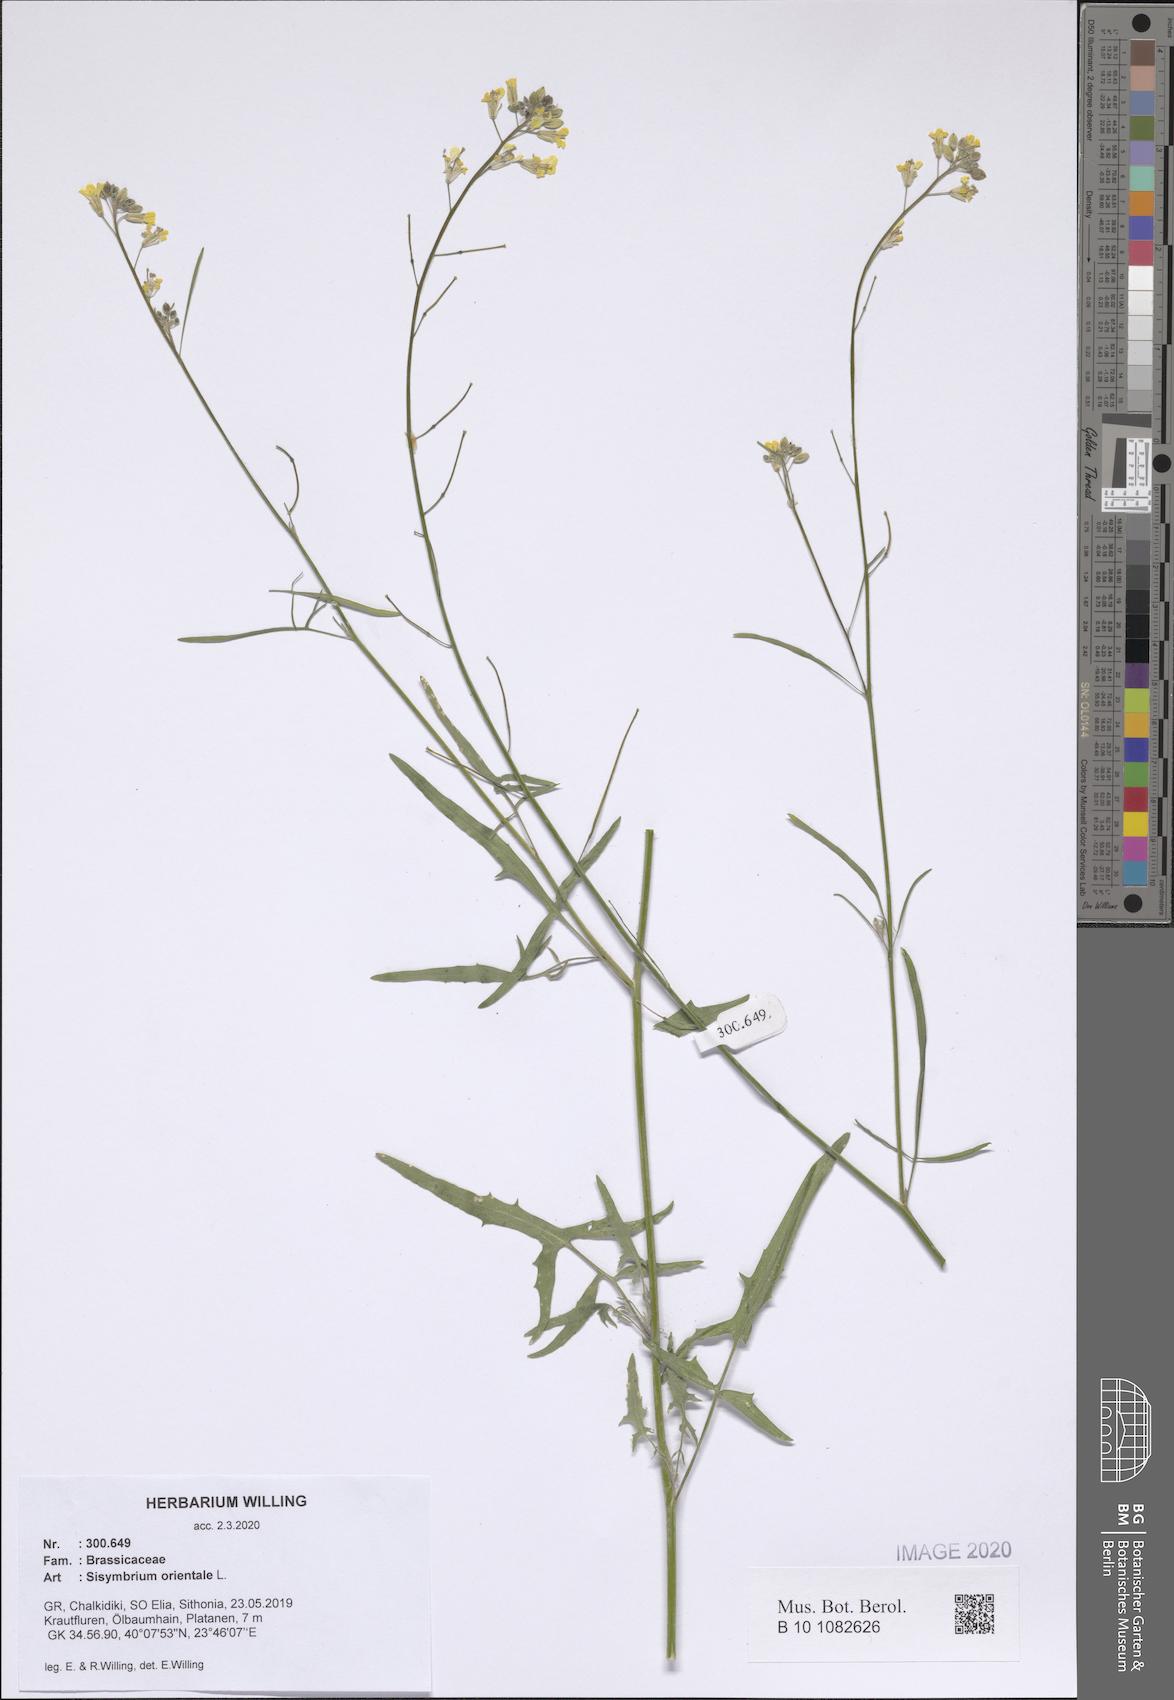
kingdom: Plantae
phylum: Tracheophyta
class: Magnoliopsida
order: Brassicales
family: Brassicaceae
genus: Sisymbrium
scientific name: Sisymbrium orientale
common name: Eastern rocket
